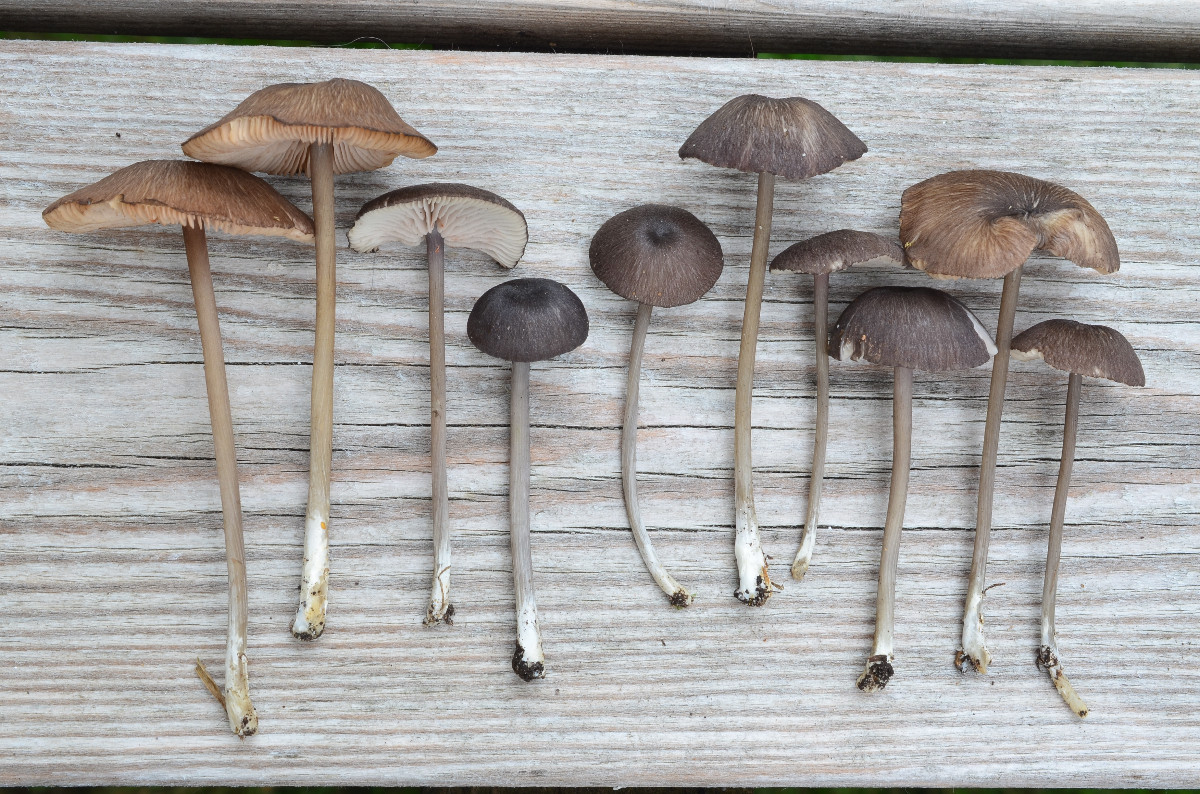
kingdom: Fungi
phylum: Basidiomycota
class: Agaricomycetes
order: Agaricales
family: Entolomataceae
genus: Entoloma
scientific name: Entoloma porphyrogriseum
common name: porfyrgrå rødblad
